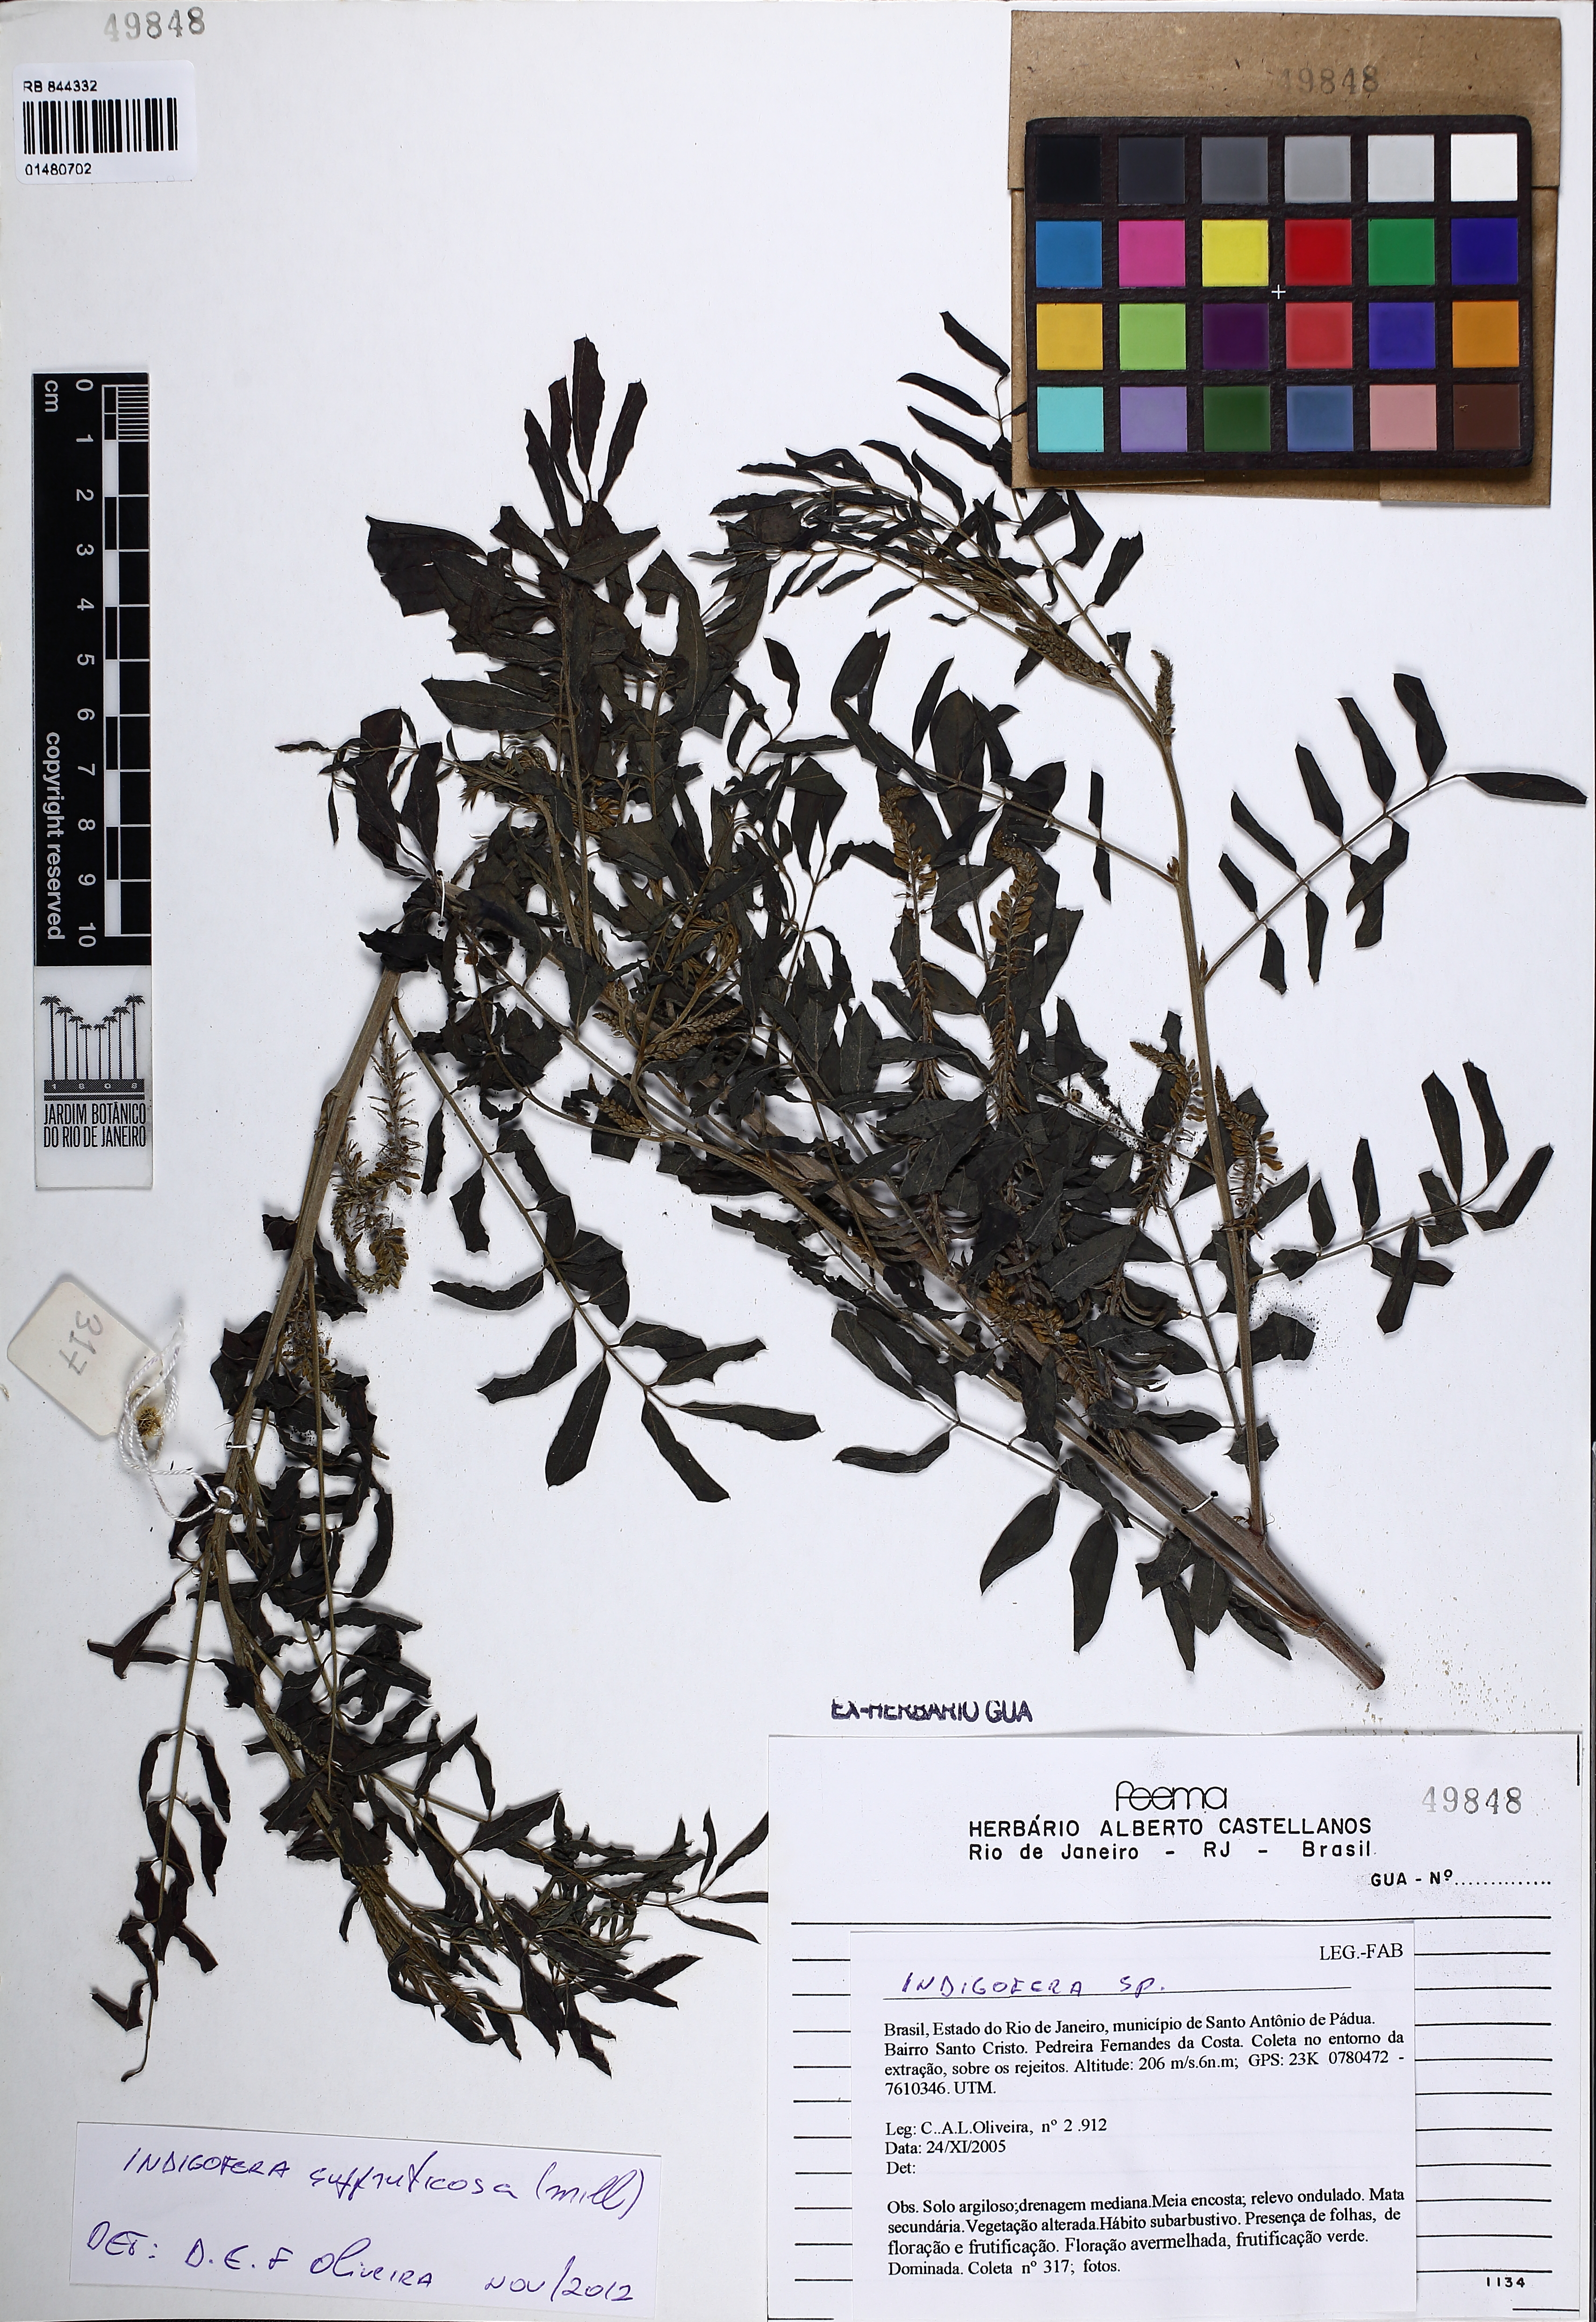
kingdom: Plantae
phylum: Tracheophyta
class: Magnoliopsida
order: Fabales
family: Fabaceae
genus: Indigofera
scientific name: Indigofera suffruticosa
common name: Anil de pasto
